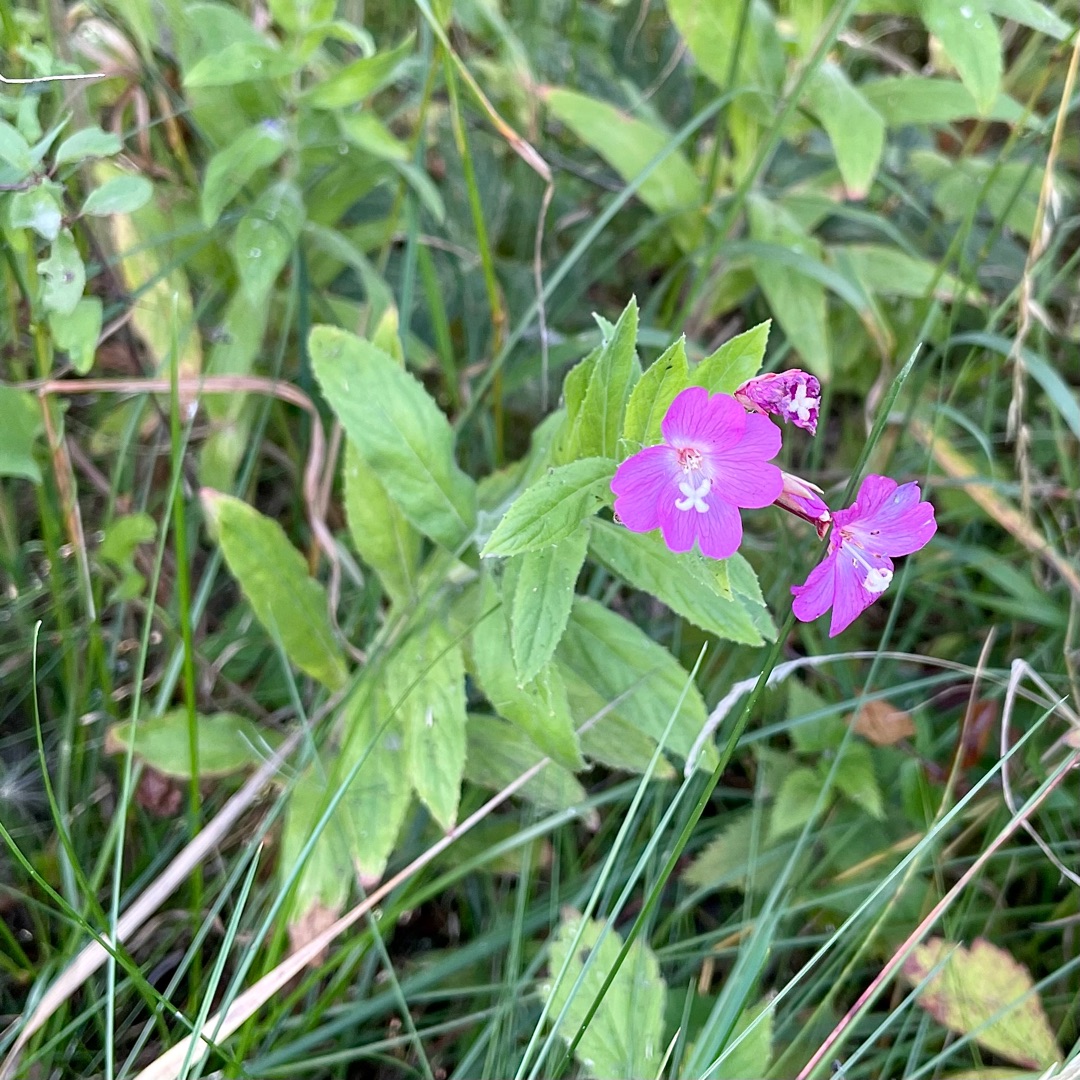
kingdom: Plantae
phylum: Tracheophyta
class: Magnoliopsida
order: Myrtales
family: Onagraceae
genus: Epilobium
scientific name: Epilobium hirsutum
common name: Lådden dueurt
